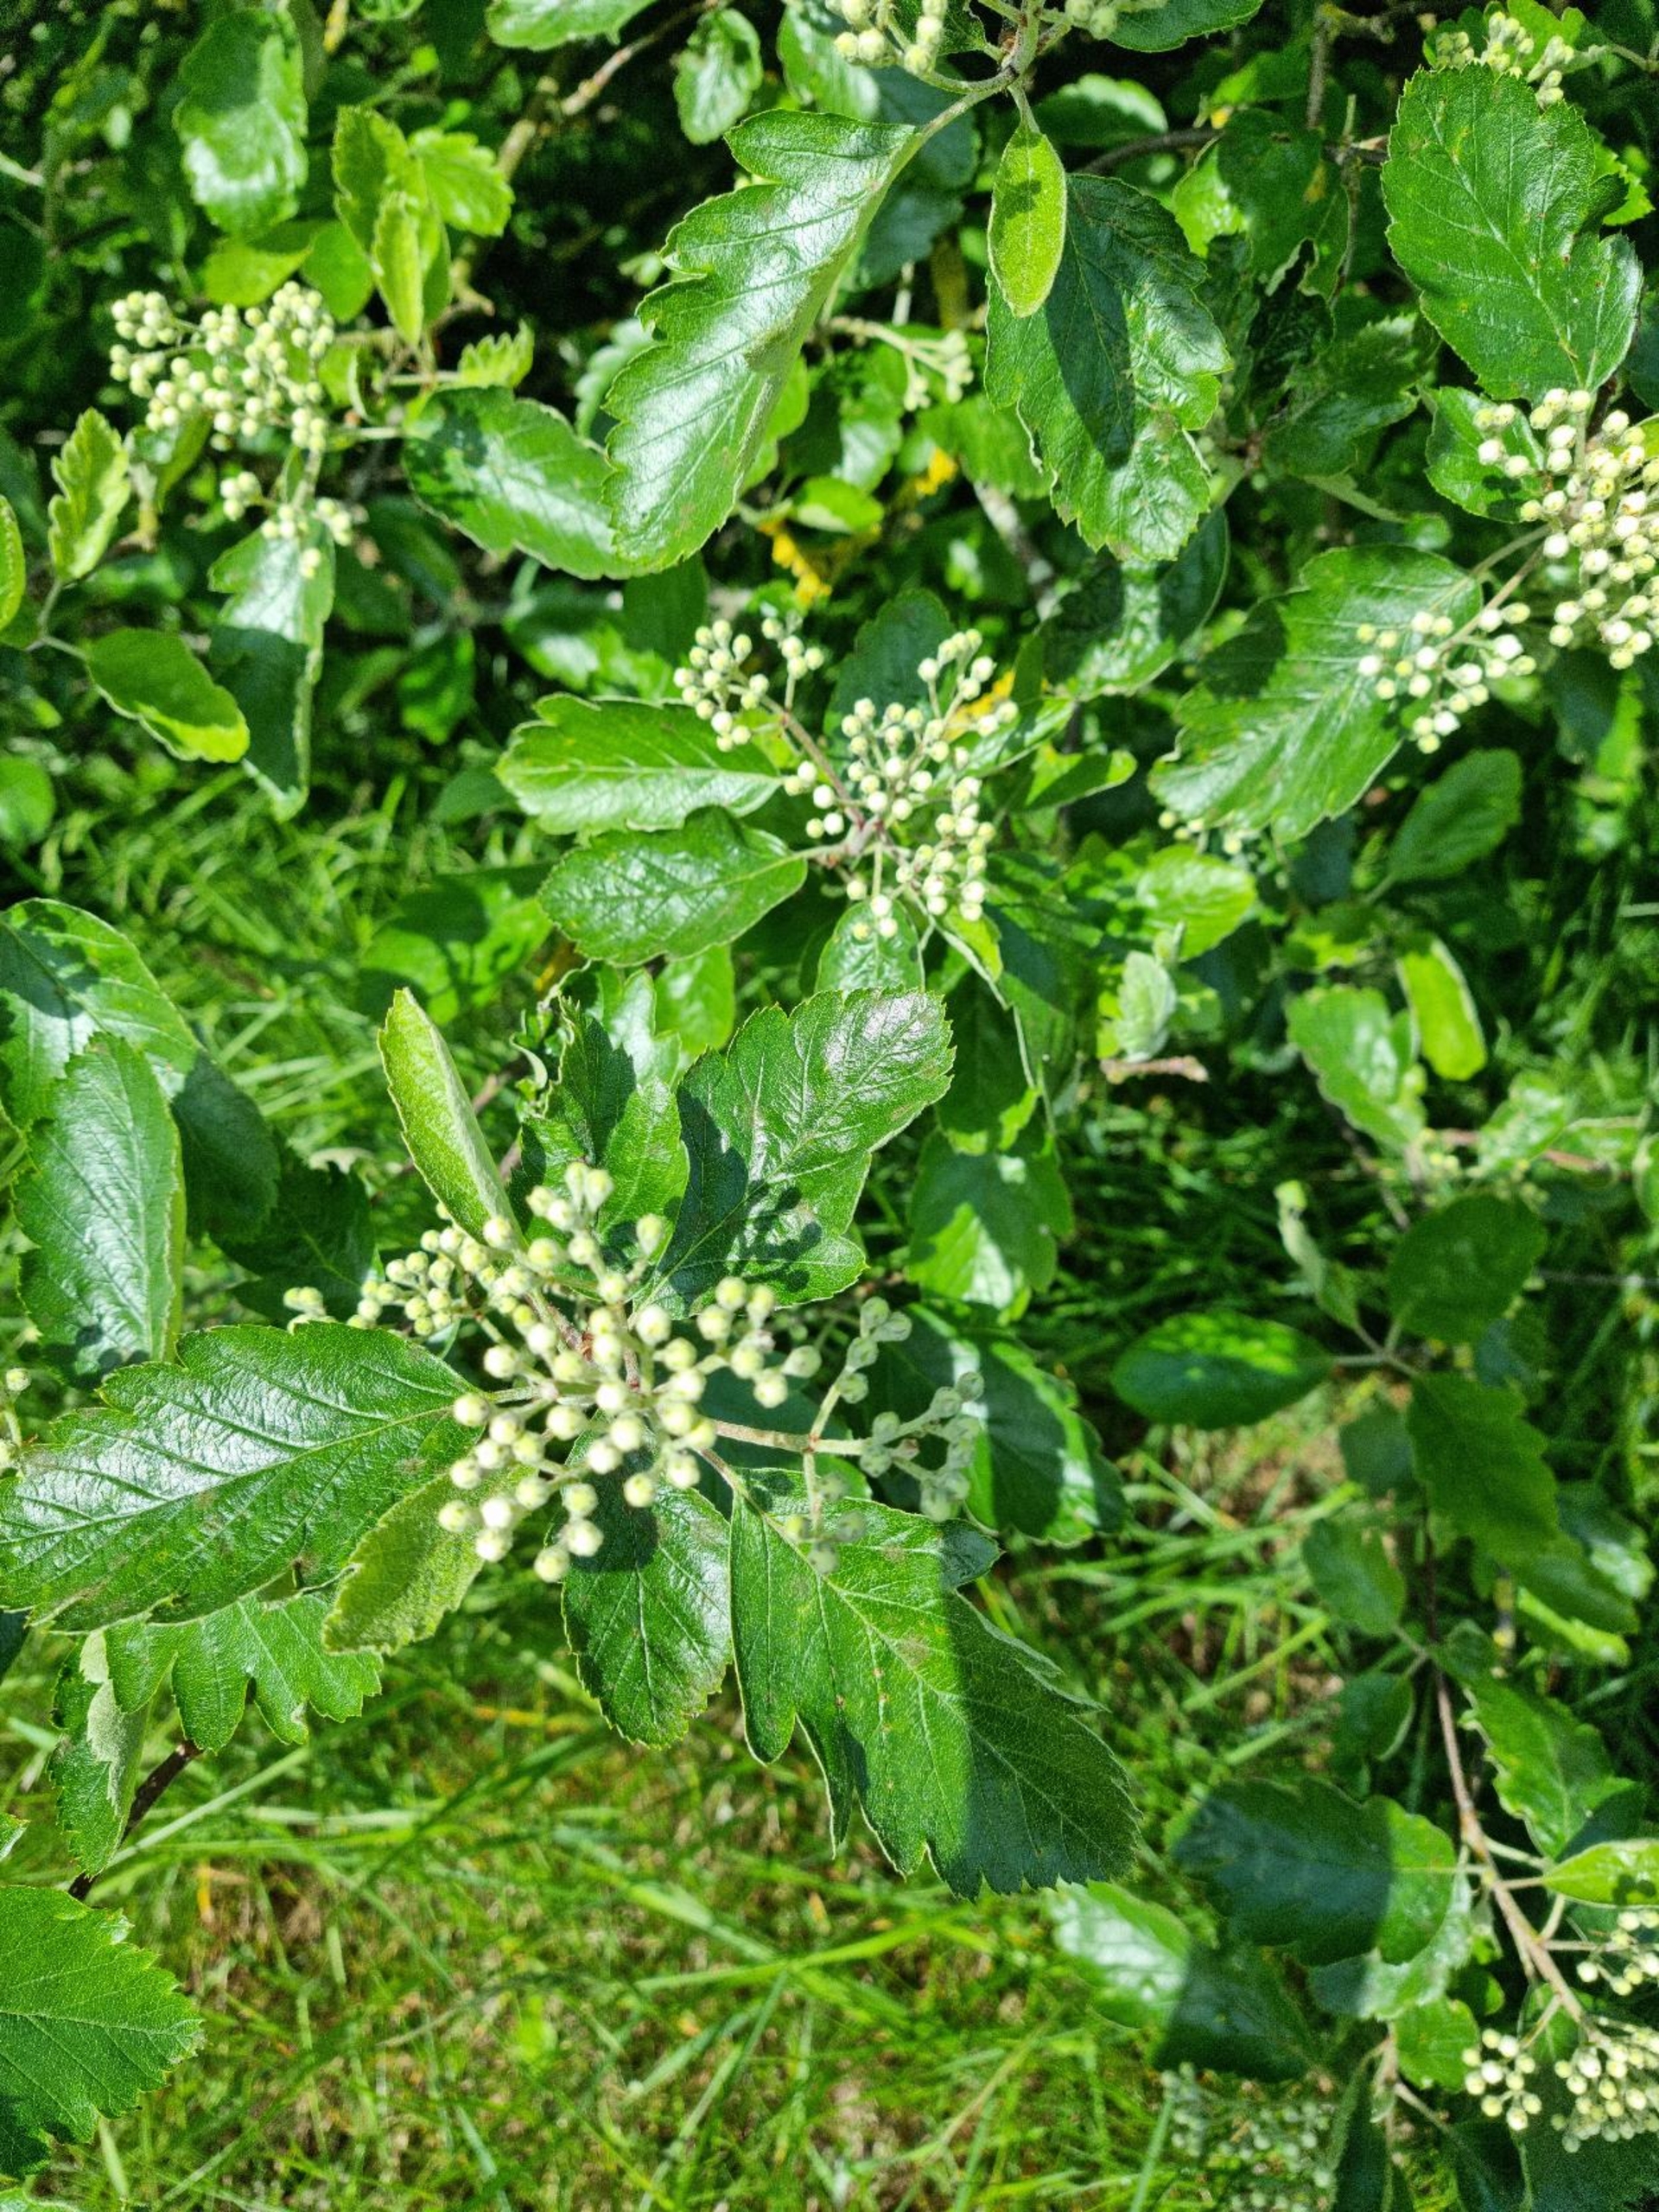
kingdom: Plantae
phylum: Tracheophyta
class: Magnoliopsida
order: Rosales
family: Rosaceae
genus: Scandosorbus
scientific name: Scandosorbus intermedia
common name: Selje-røn
